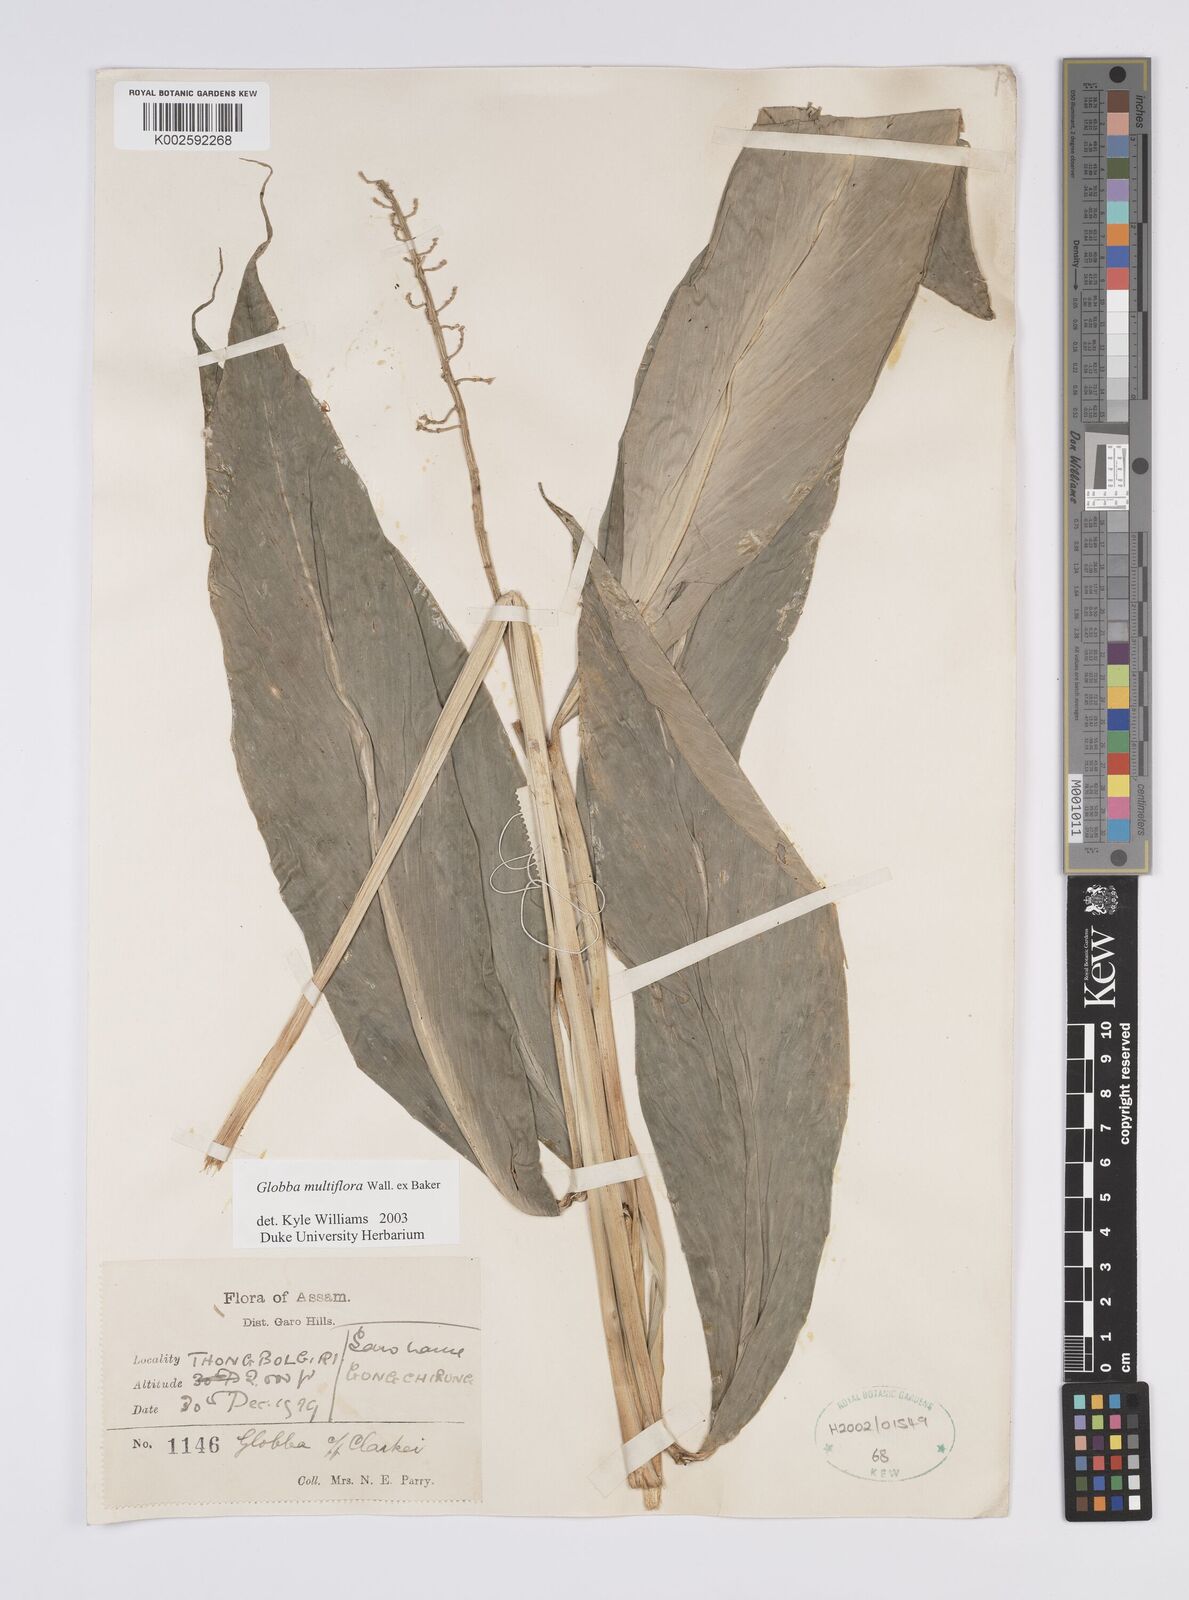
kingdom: Plantae
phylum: Tracheophyta
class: Liliopsida
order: Zingiberales
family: Zingiberaceae
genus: Globba
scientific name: Globba multiflora
